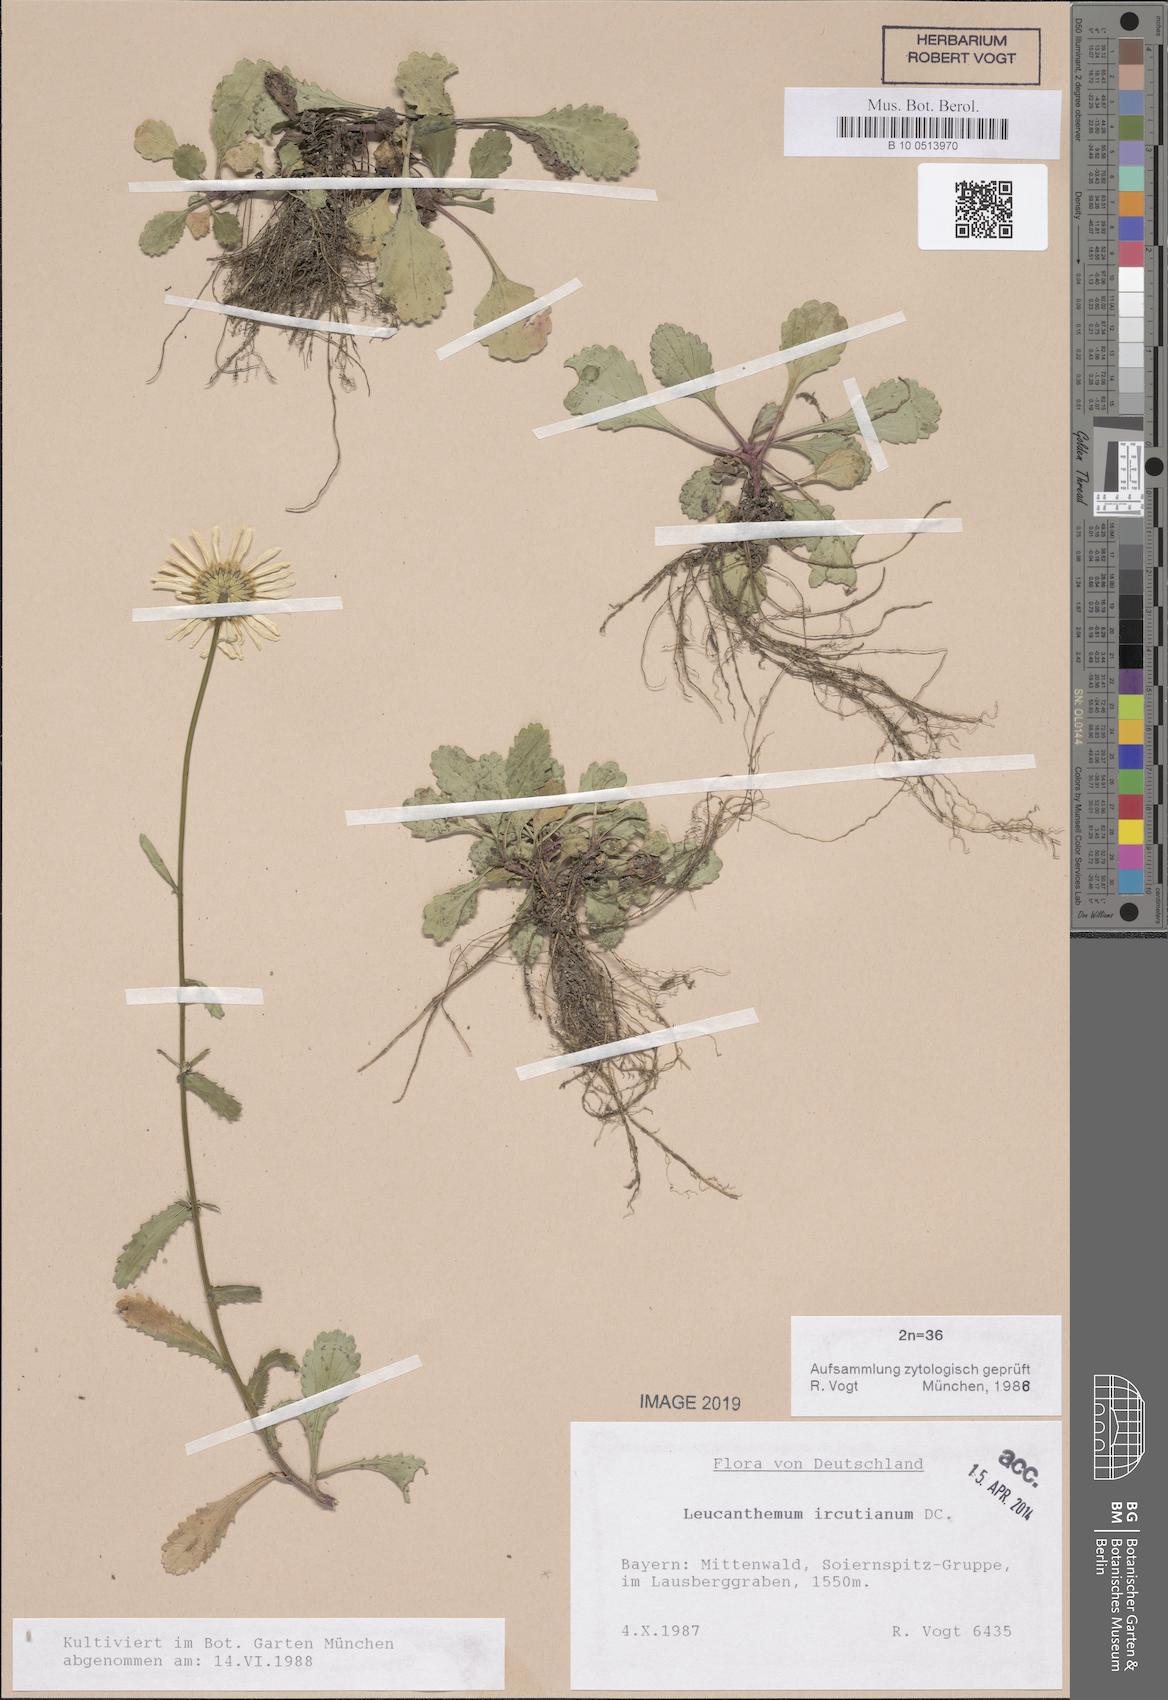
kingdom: Plantae
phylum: Tracheophyta
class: Magnoliopsida
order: Asterales
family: Asteraceae
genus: Leucanthemum
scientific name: Leucanthemum ircutianum
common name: Daisy
